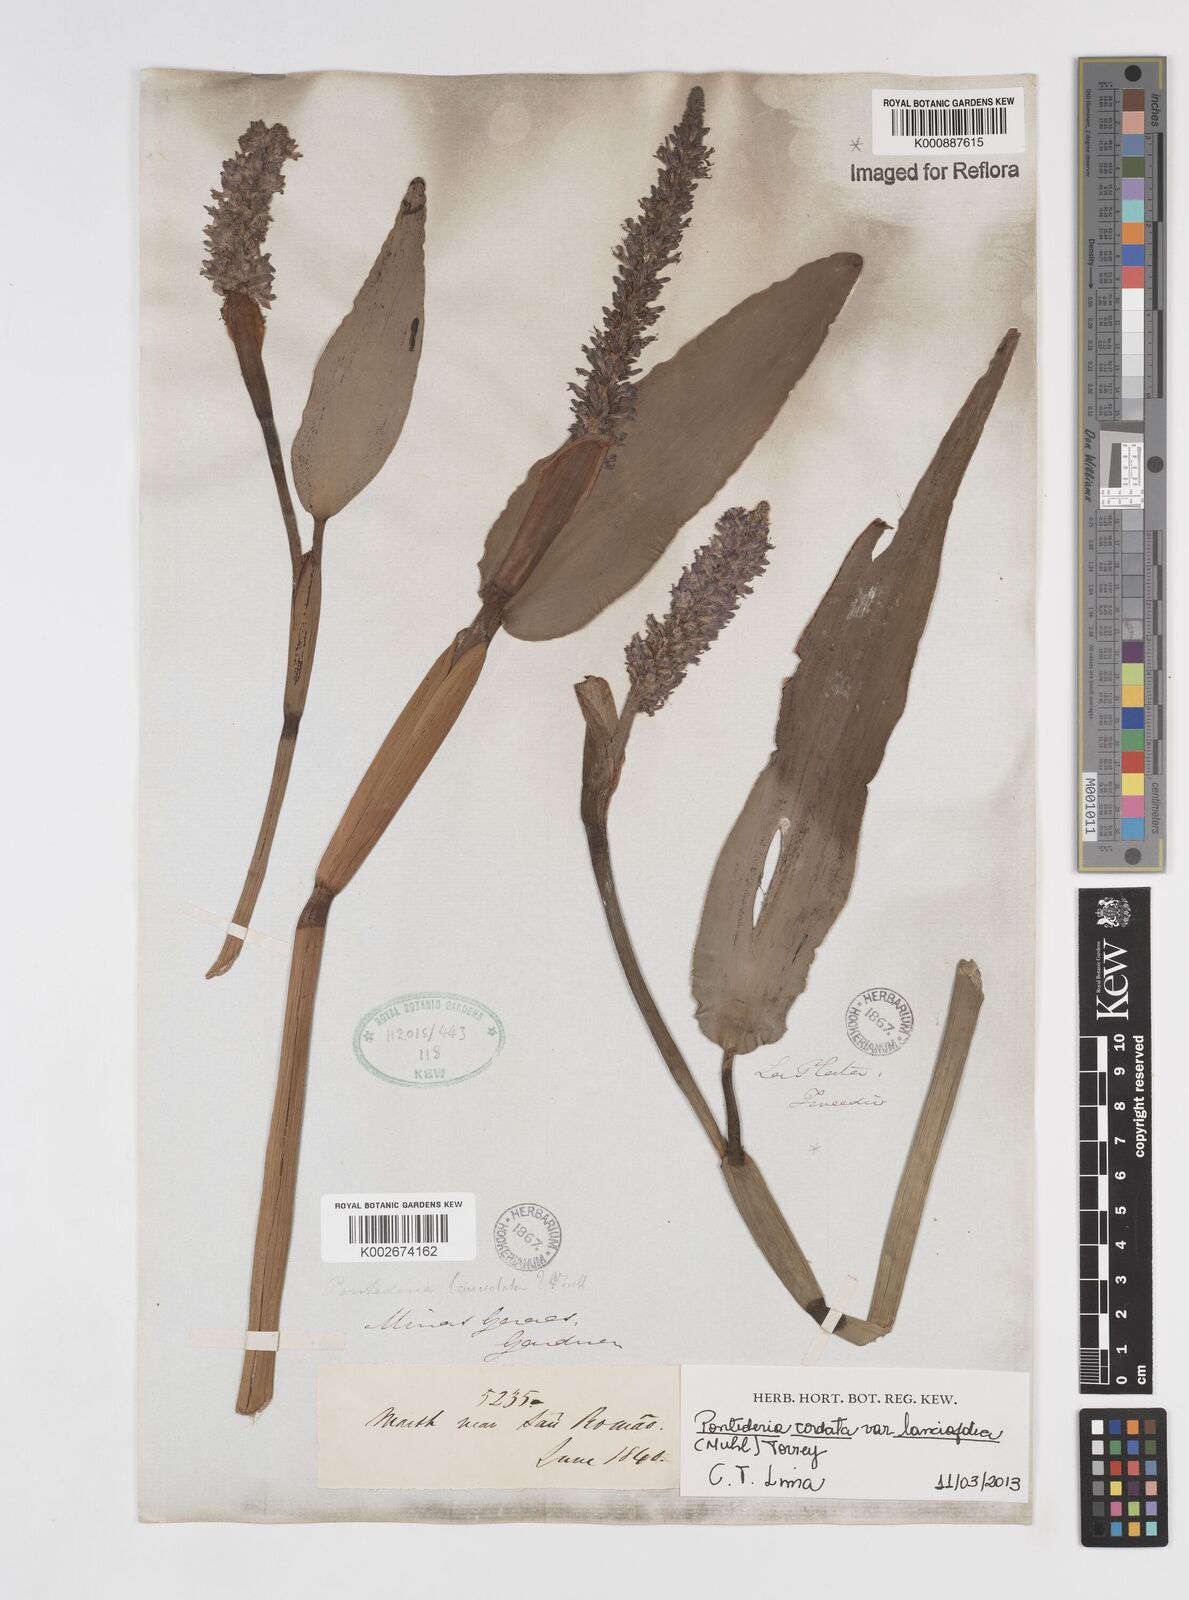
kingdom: Plantae
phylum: Tracheophyta
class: Liliopsida
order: Commelinales
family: Pontederiaceae
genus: Pontederia
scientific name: Pontederia
